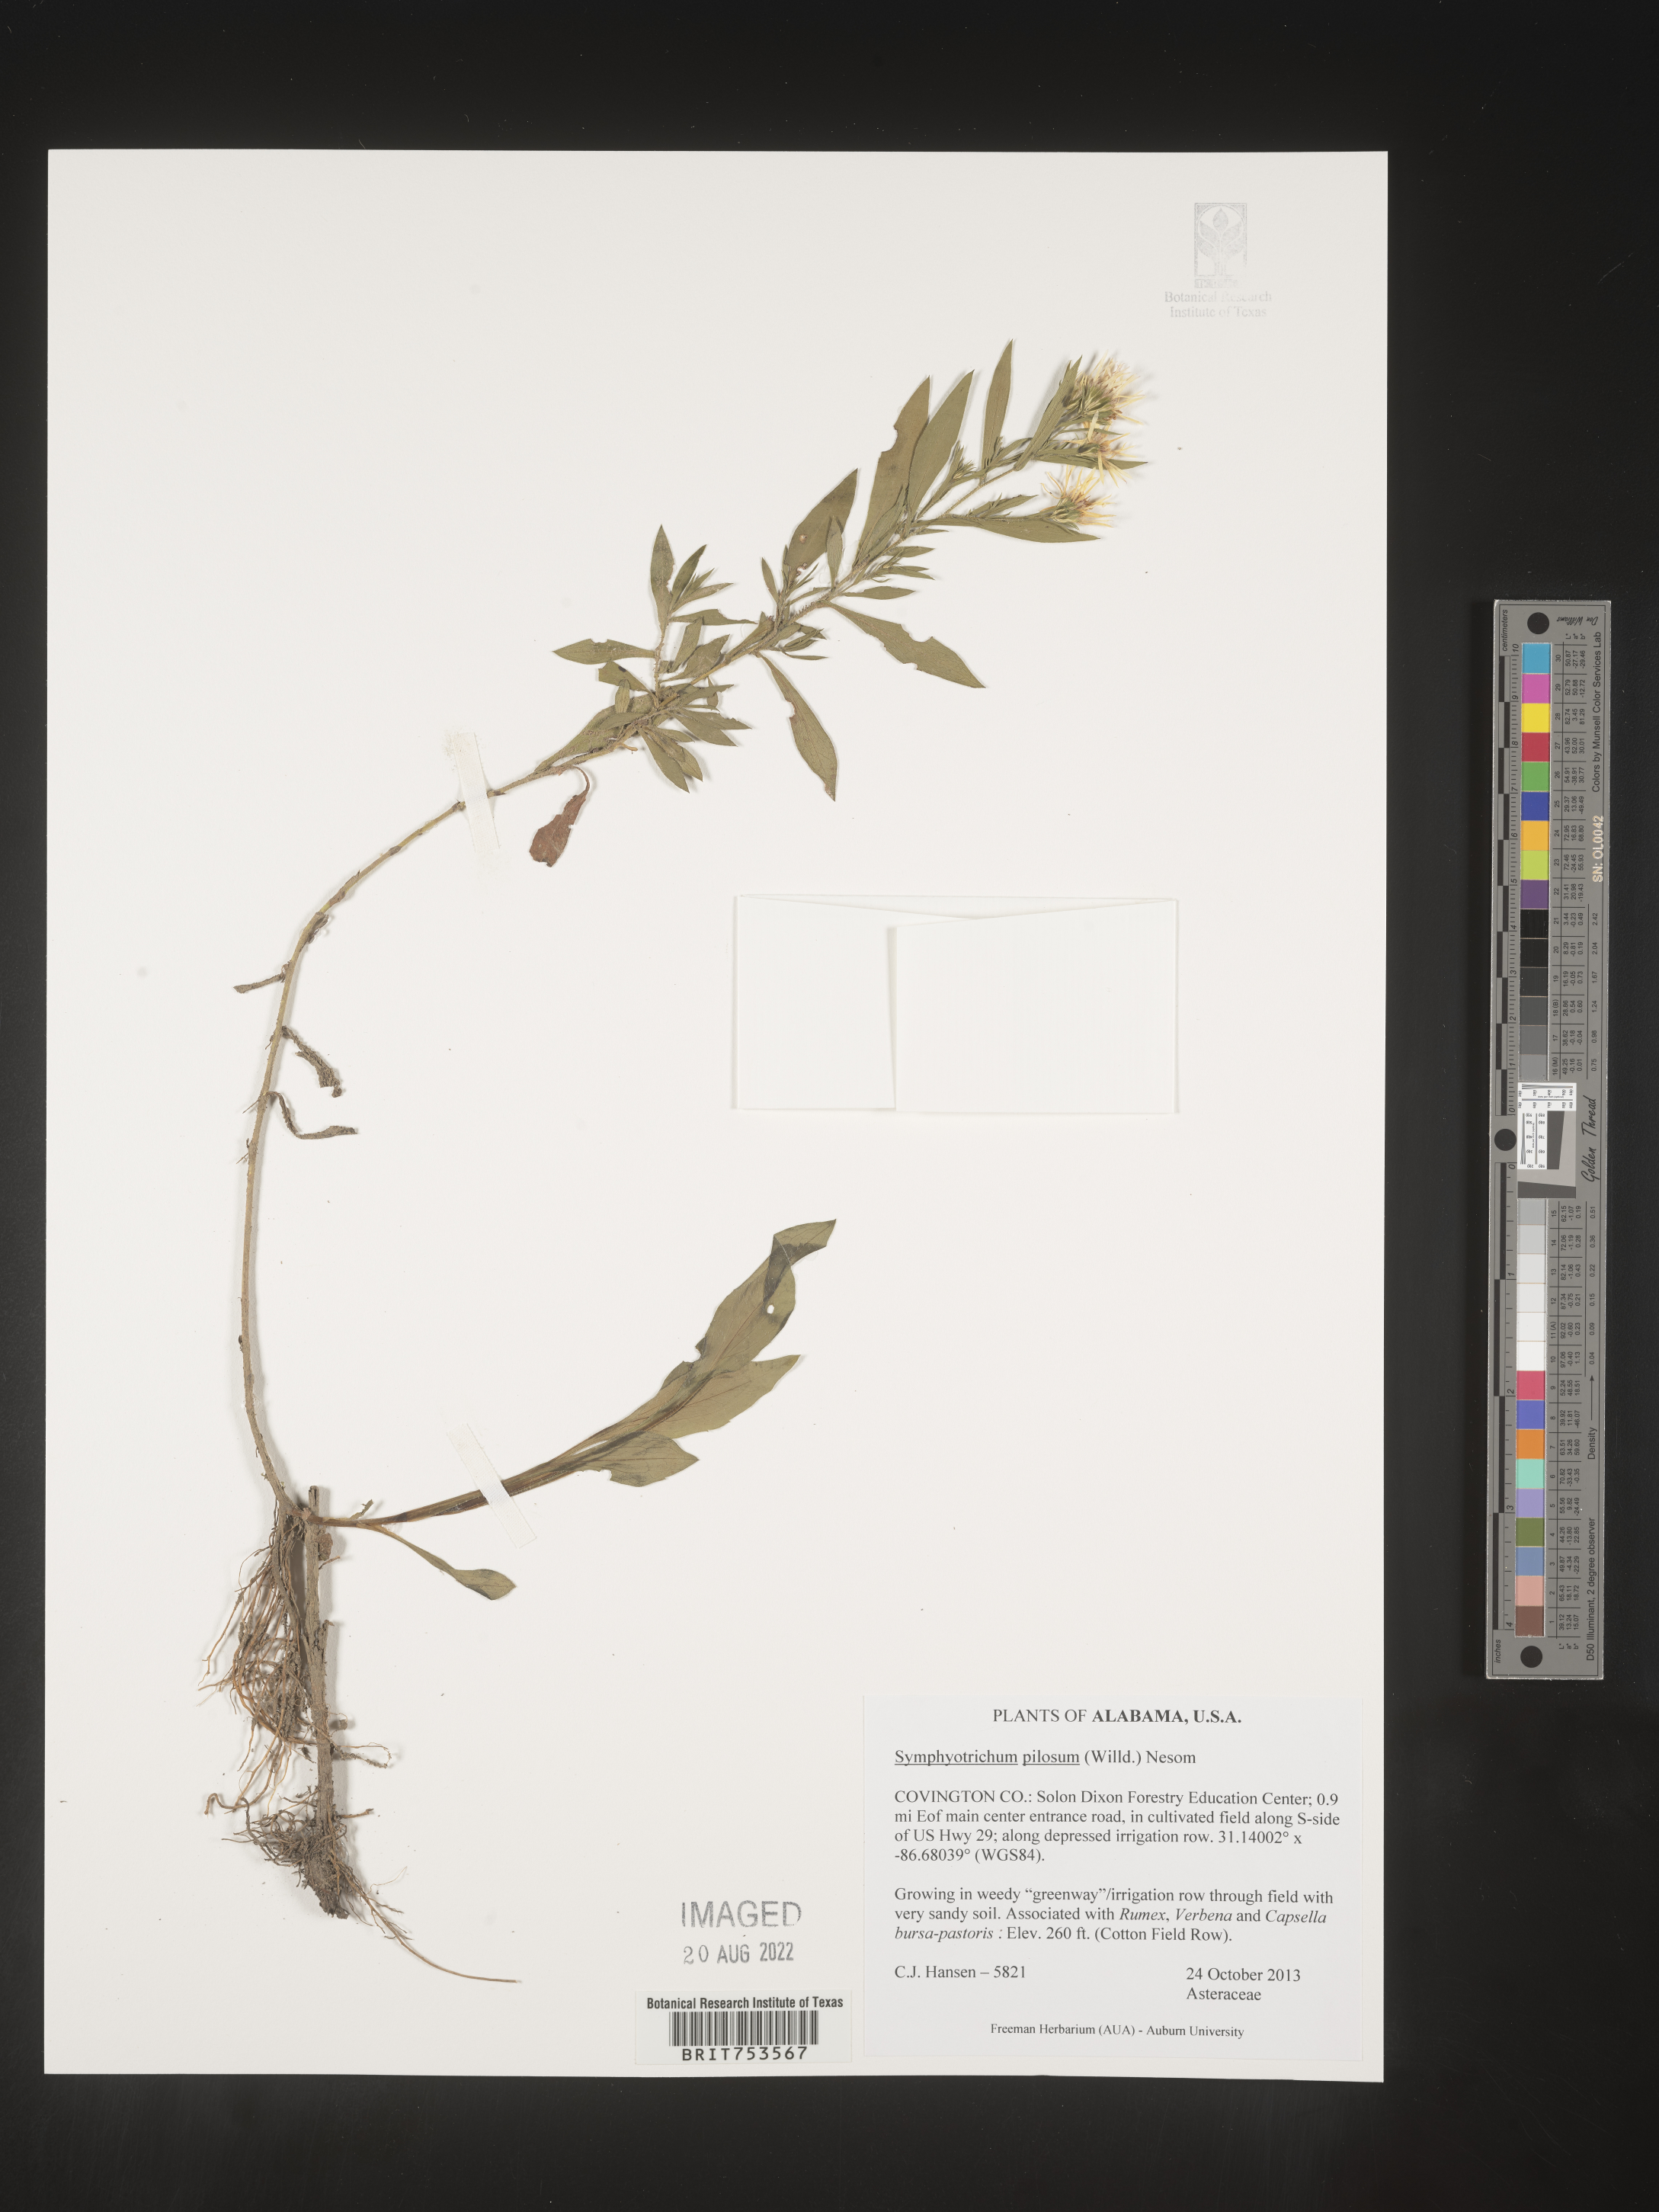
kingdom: Plantae
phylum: Tracheophyta
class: Magnoliopsida
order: Asterales
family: Asteraceae
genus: Symphyotrichum
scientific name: Symphyotrichum pilosum
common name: Awl aster
